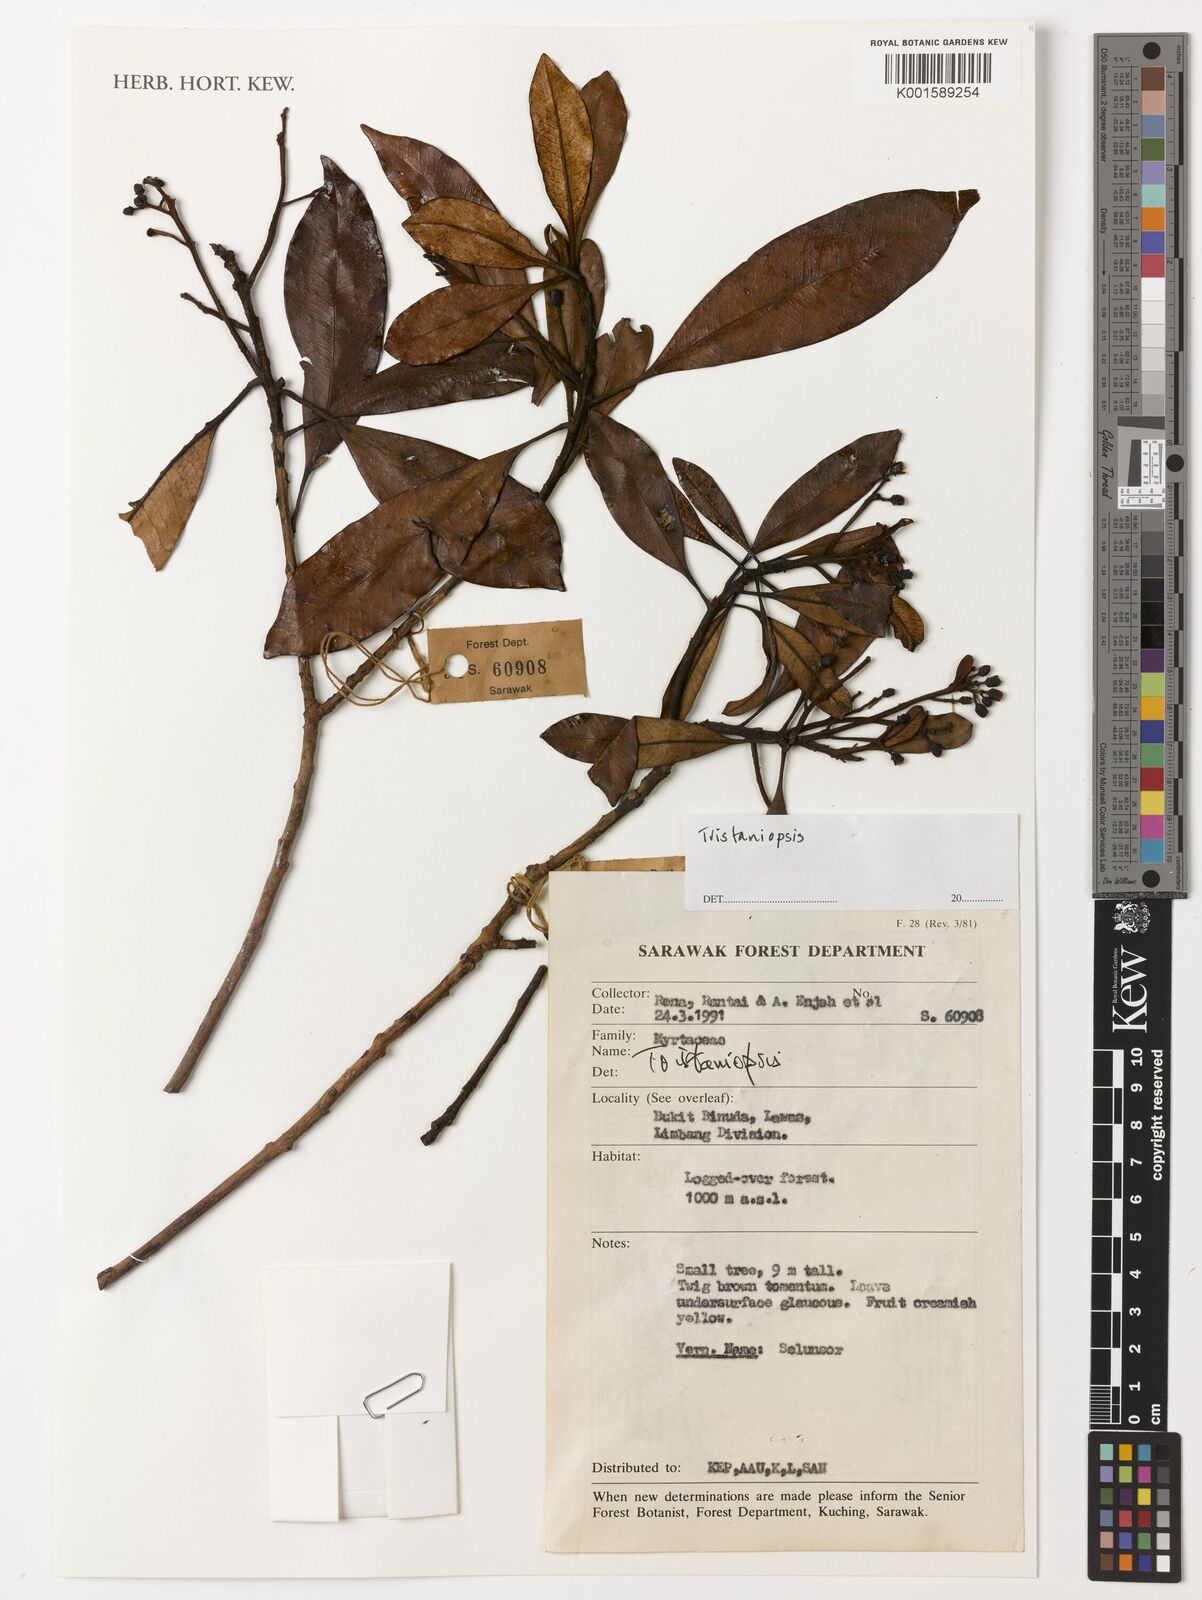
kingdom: Plantae
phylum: Tracheophyta
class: Magnoliopsida
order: Myrtales
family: Myrtaceae
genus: Tristaniopsis
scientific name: Tristaniopsis
